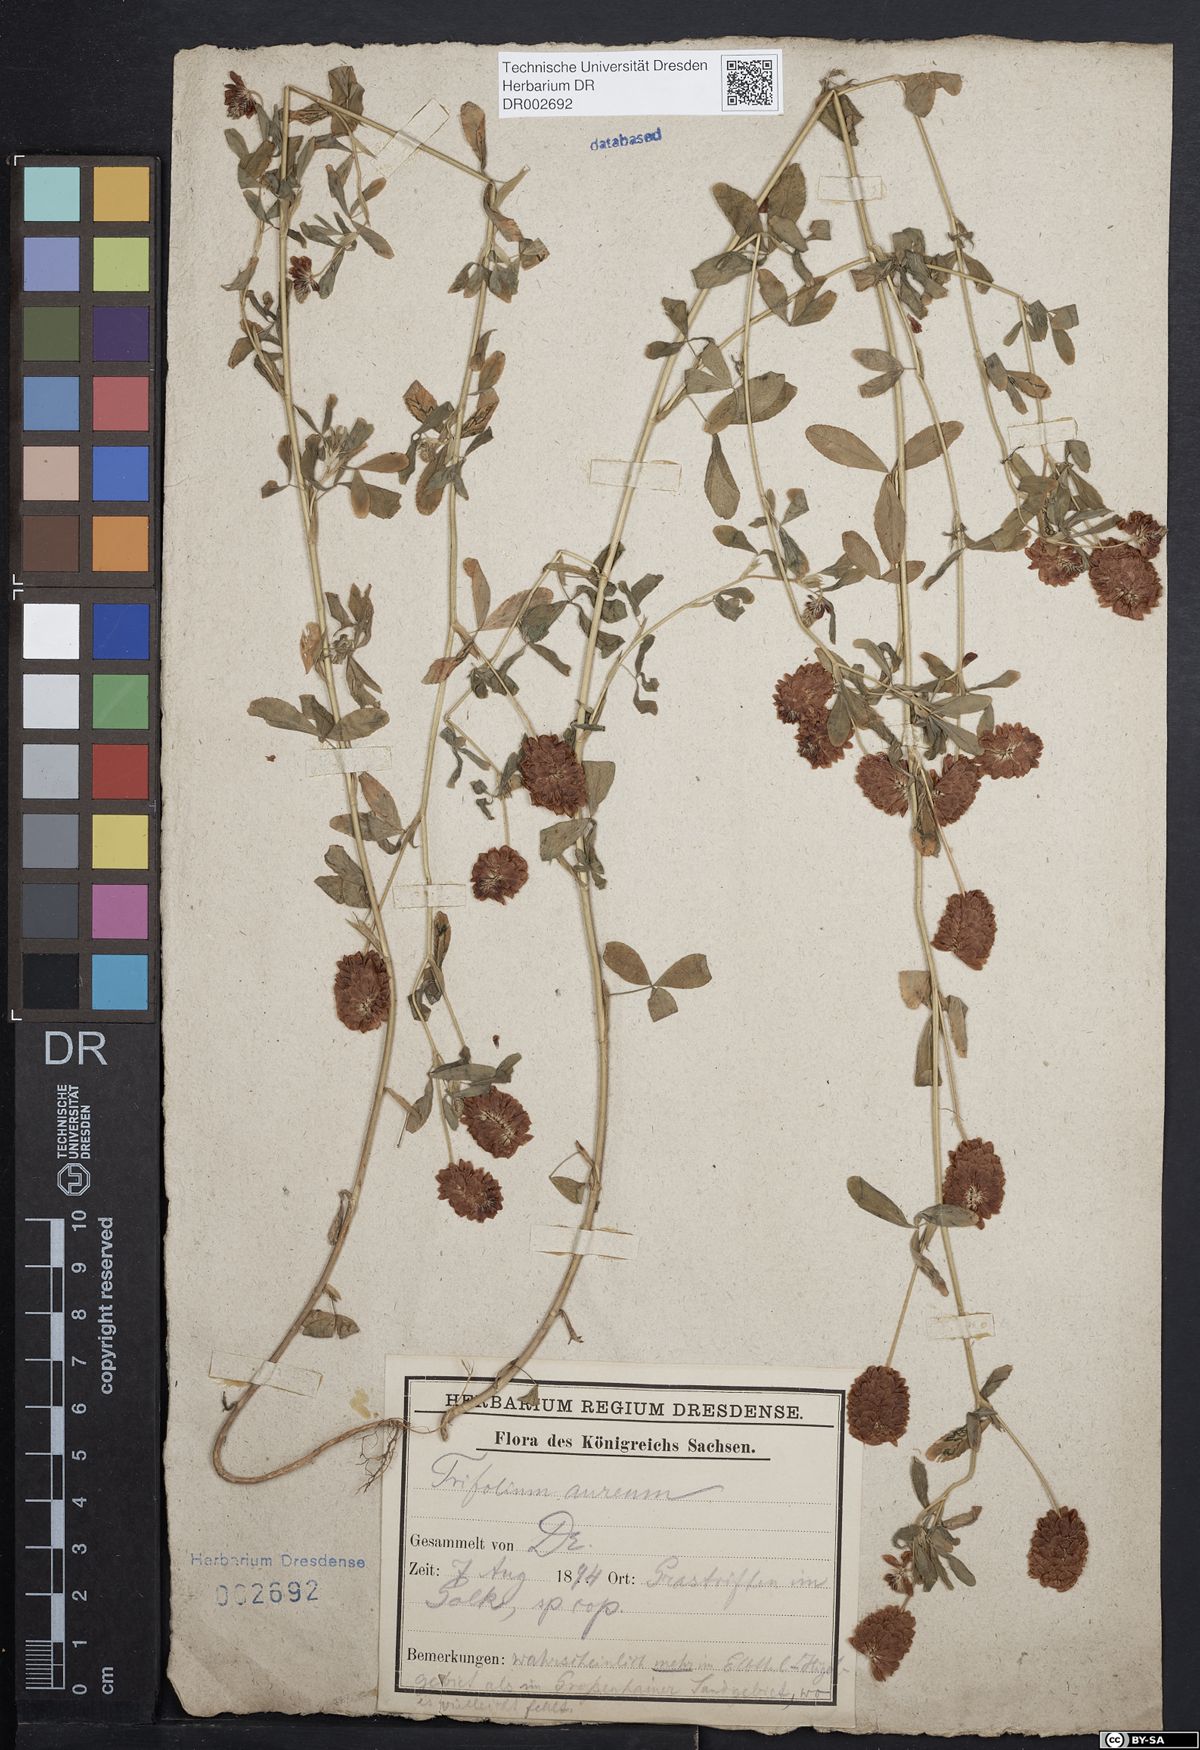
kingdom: Plantae
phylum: Tracheophyta
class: Magnoliopsida
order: Fabales
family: Fabaceae
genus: Trifolium
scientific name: Trifolium aureum
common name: Golden clover
